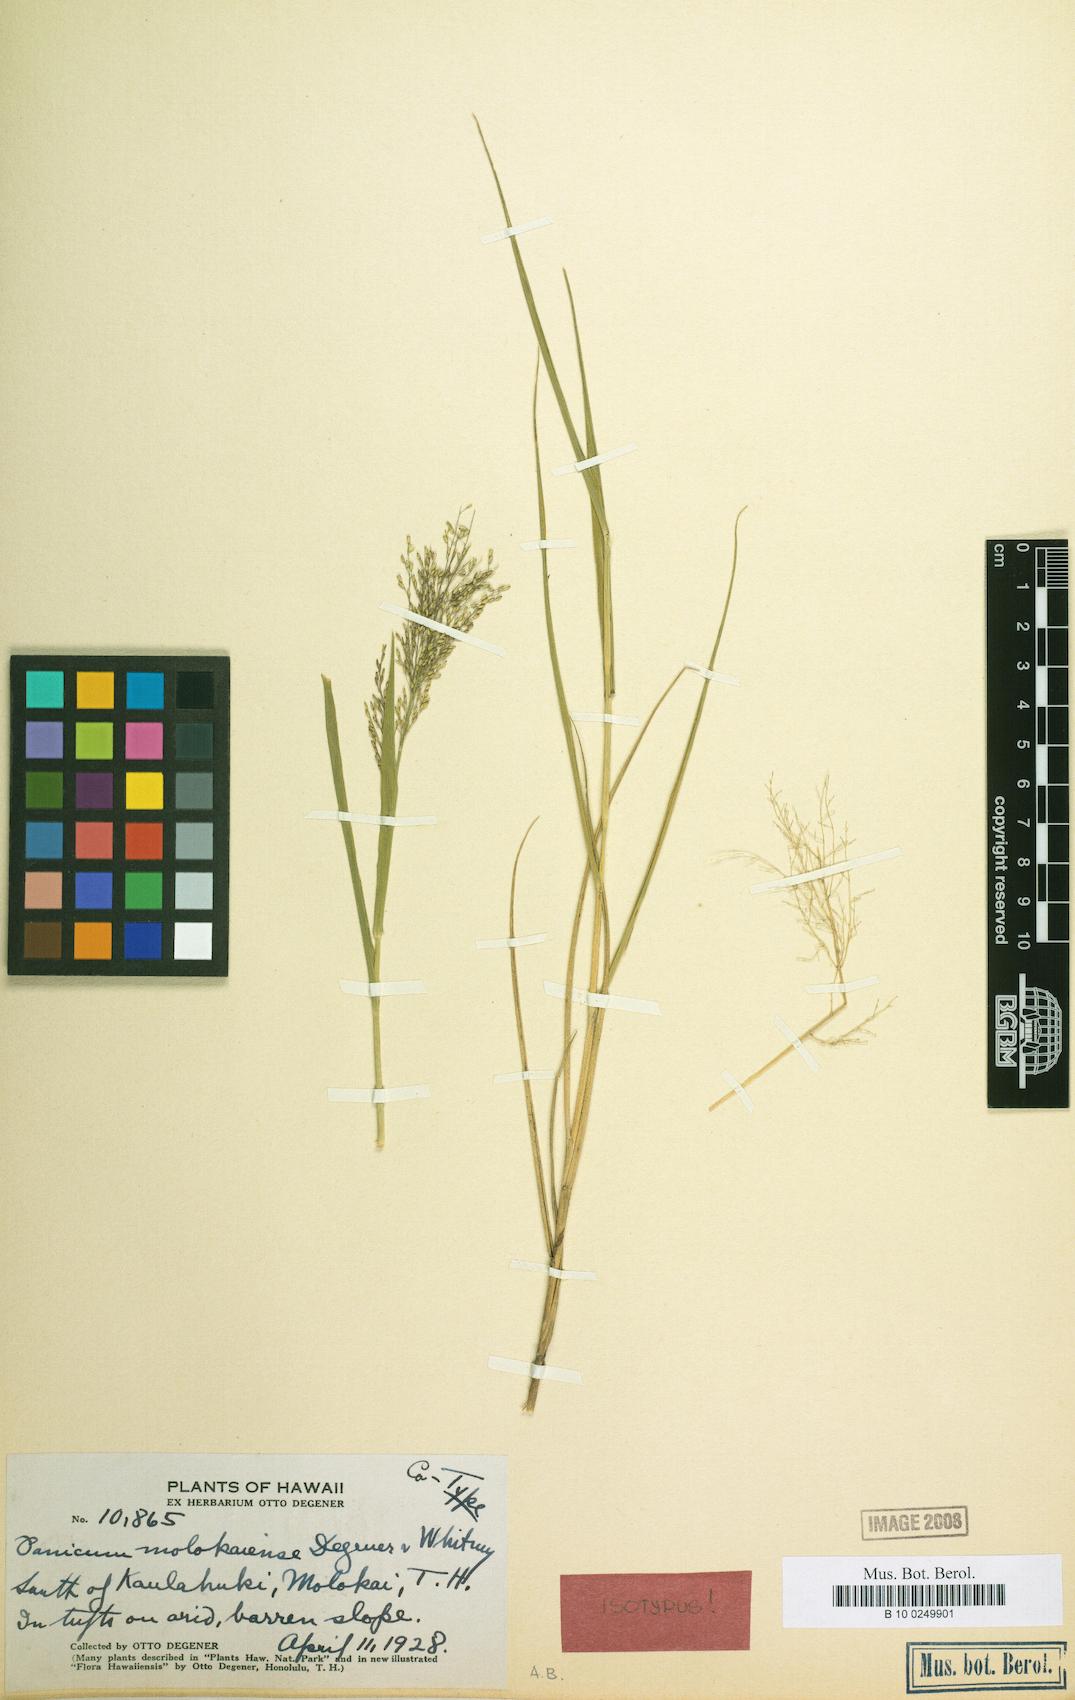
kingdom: Plantae
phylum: Tracheophyta
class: Liliopsida
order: Poales
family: Poaceae
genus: Panicum
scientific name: Panicum tenuifolium
